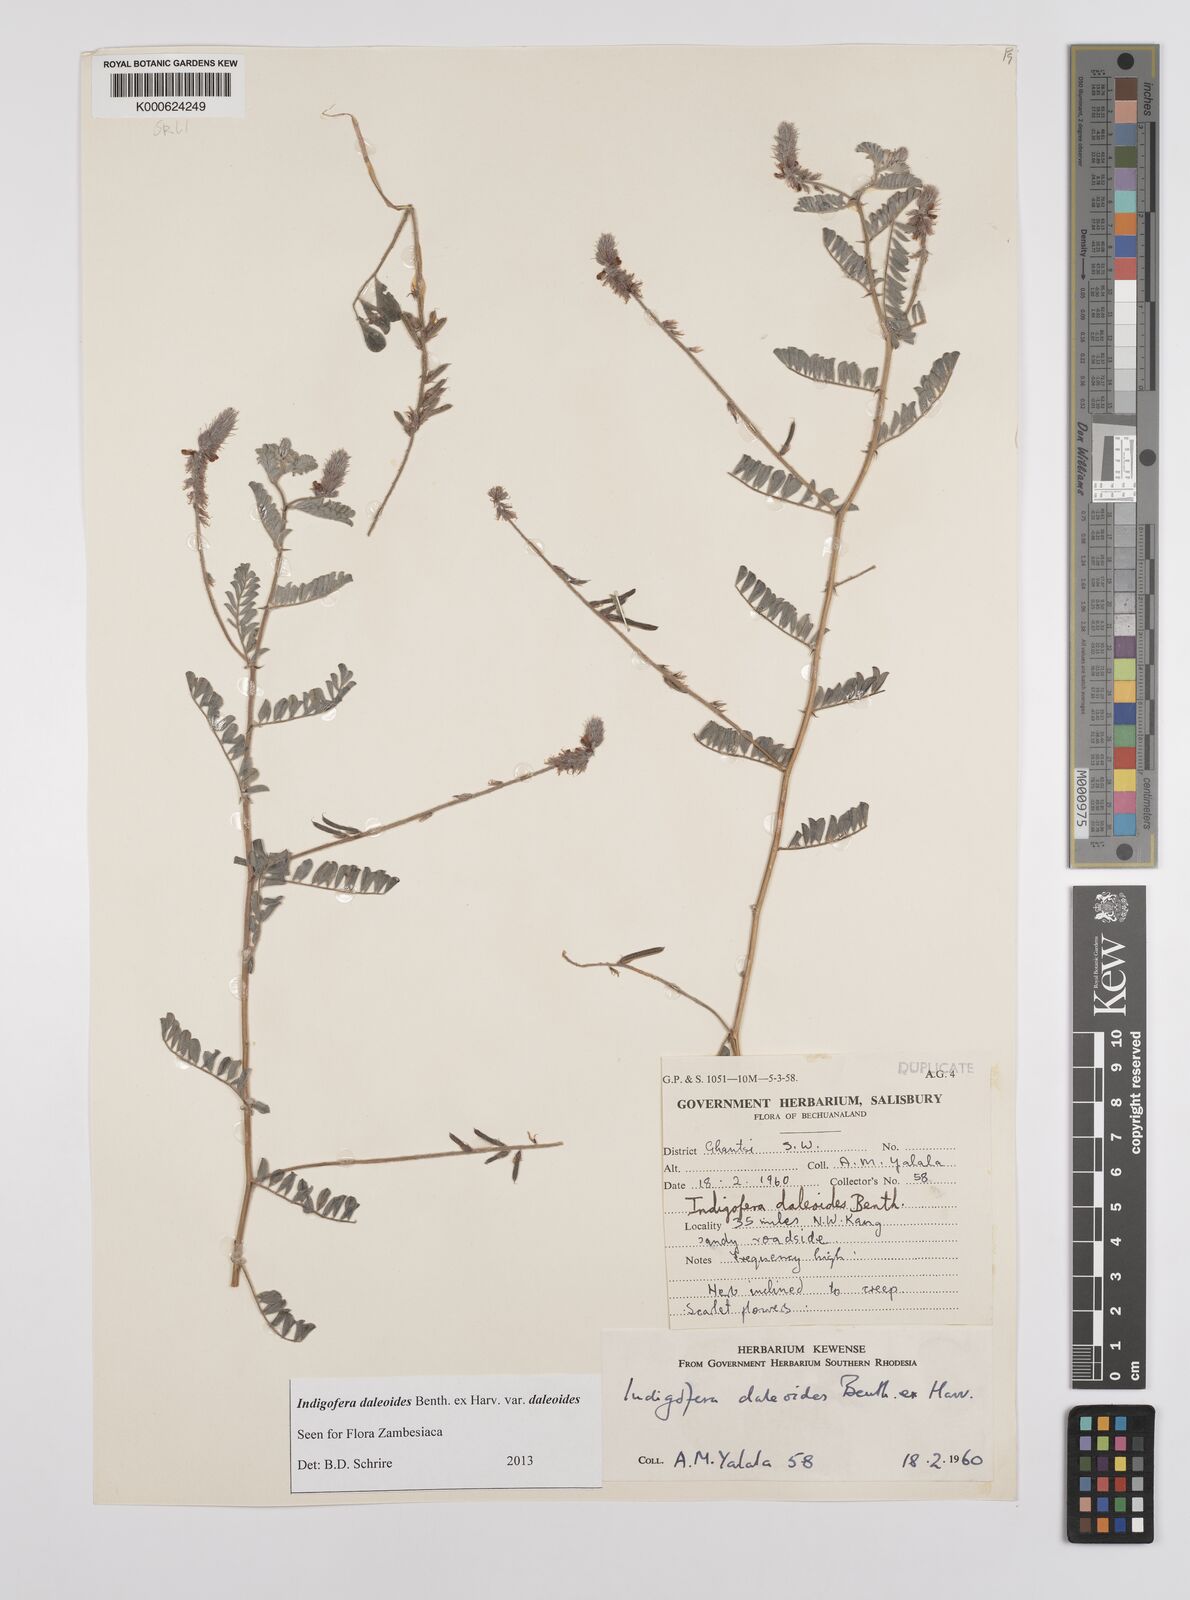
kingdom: Plantae
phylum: Tracheophyta
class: Magnoliopsida
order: Fabales
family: Fabaceae
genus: Indigofera
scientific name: Indigofera daleoides
